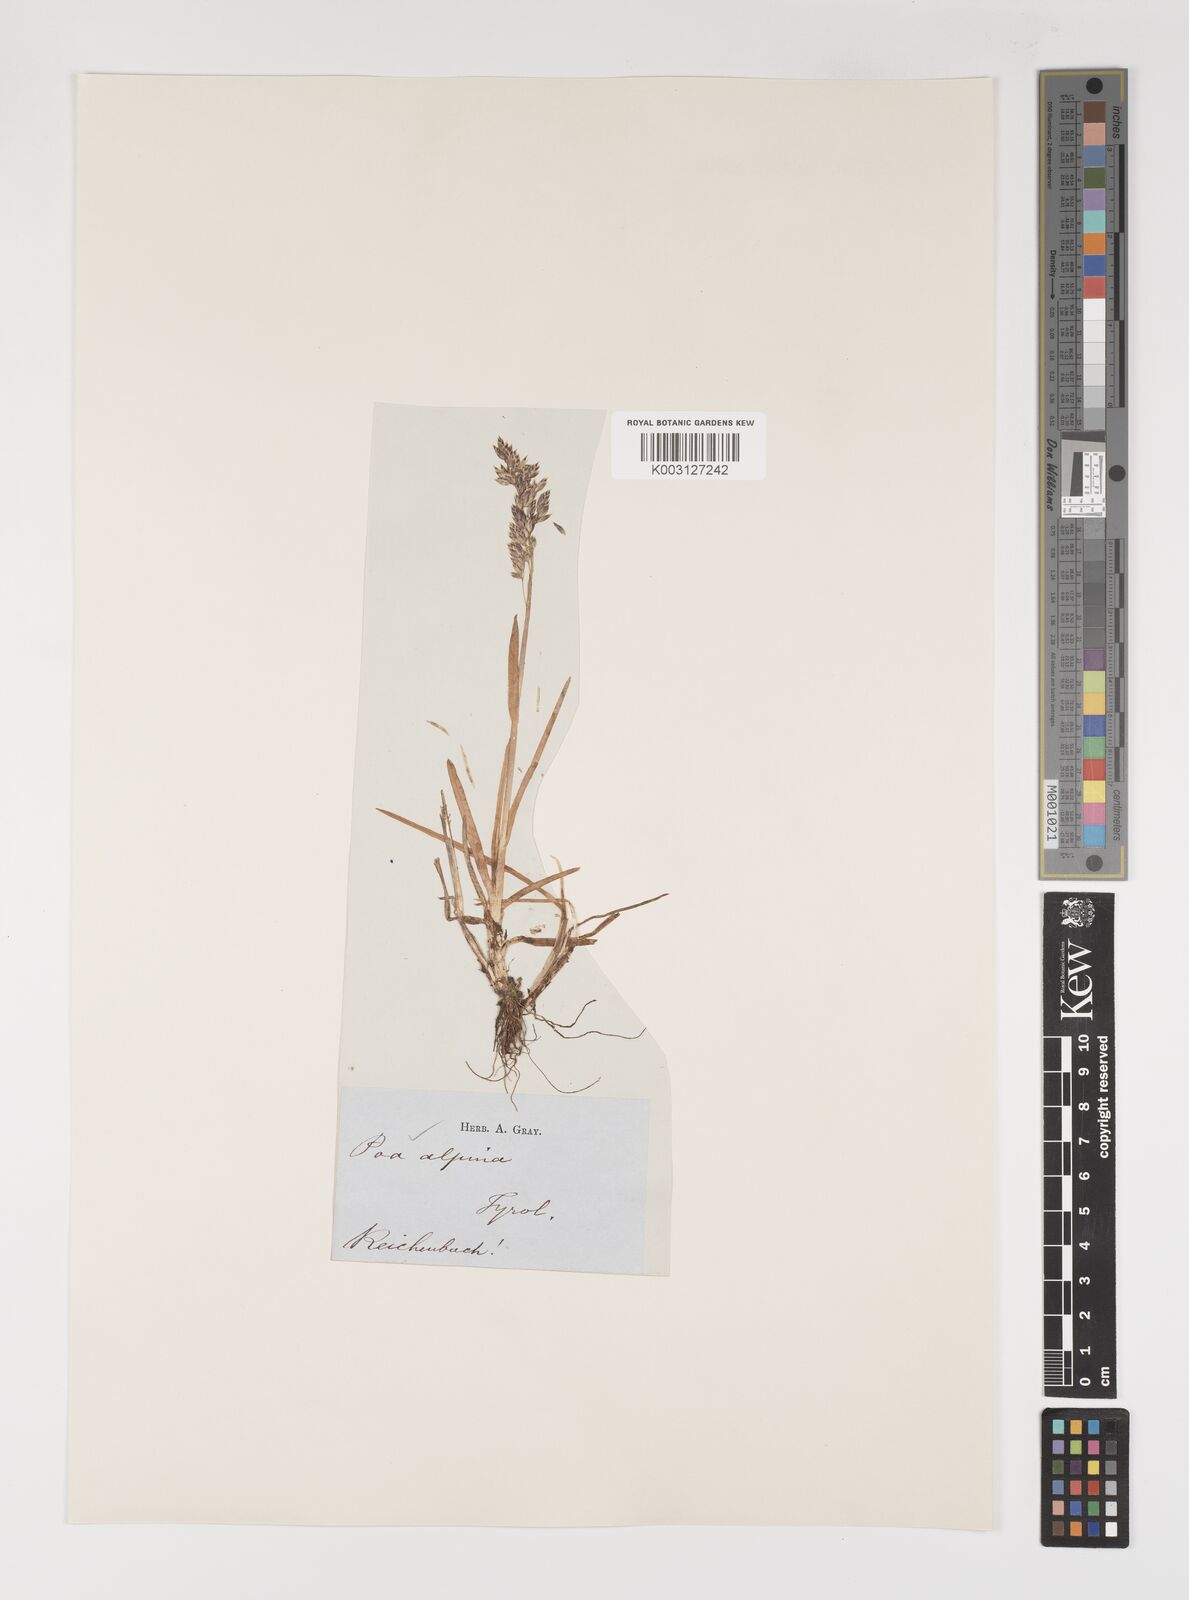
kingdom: Plantae
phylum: Tracheophyta
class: Liliopsida
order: Poales
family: Poaceae
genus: Poa
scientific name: Poa alpina
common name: Alpine bluegrass
